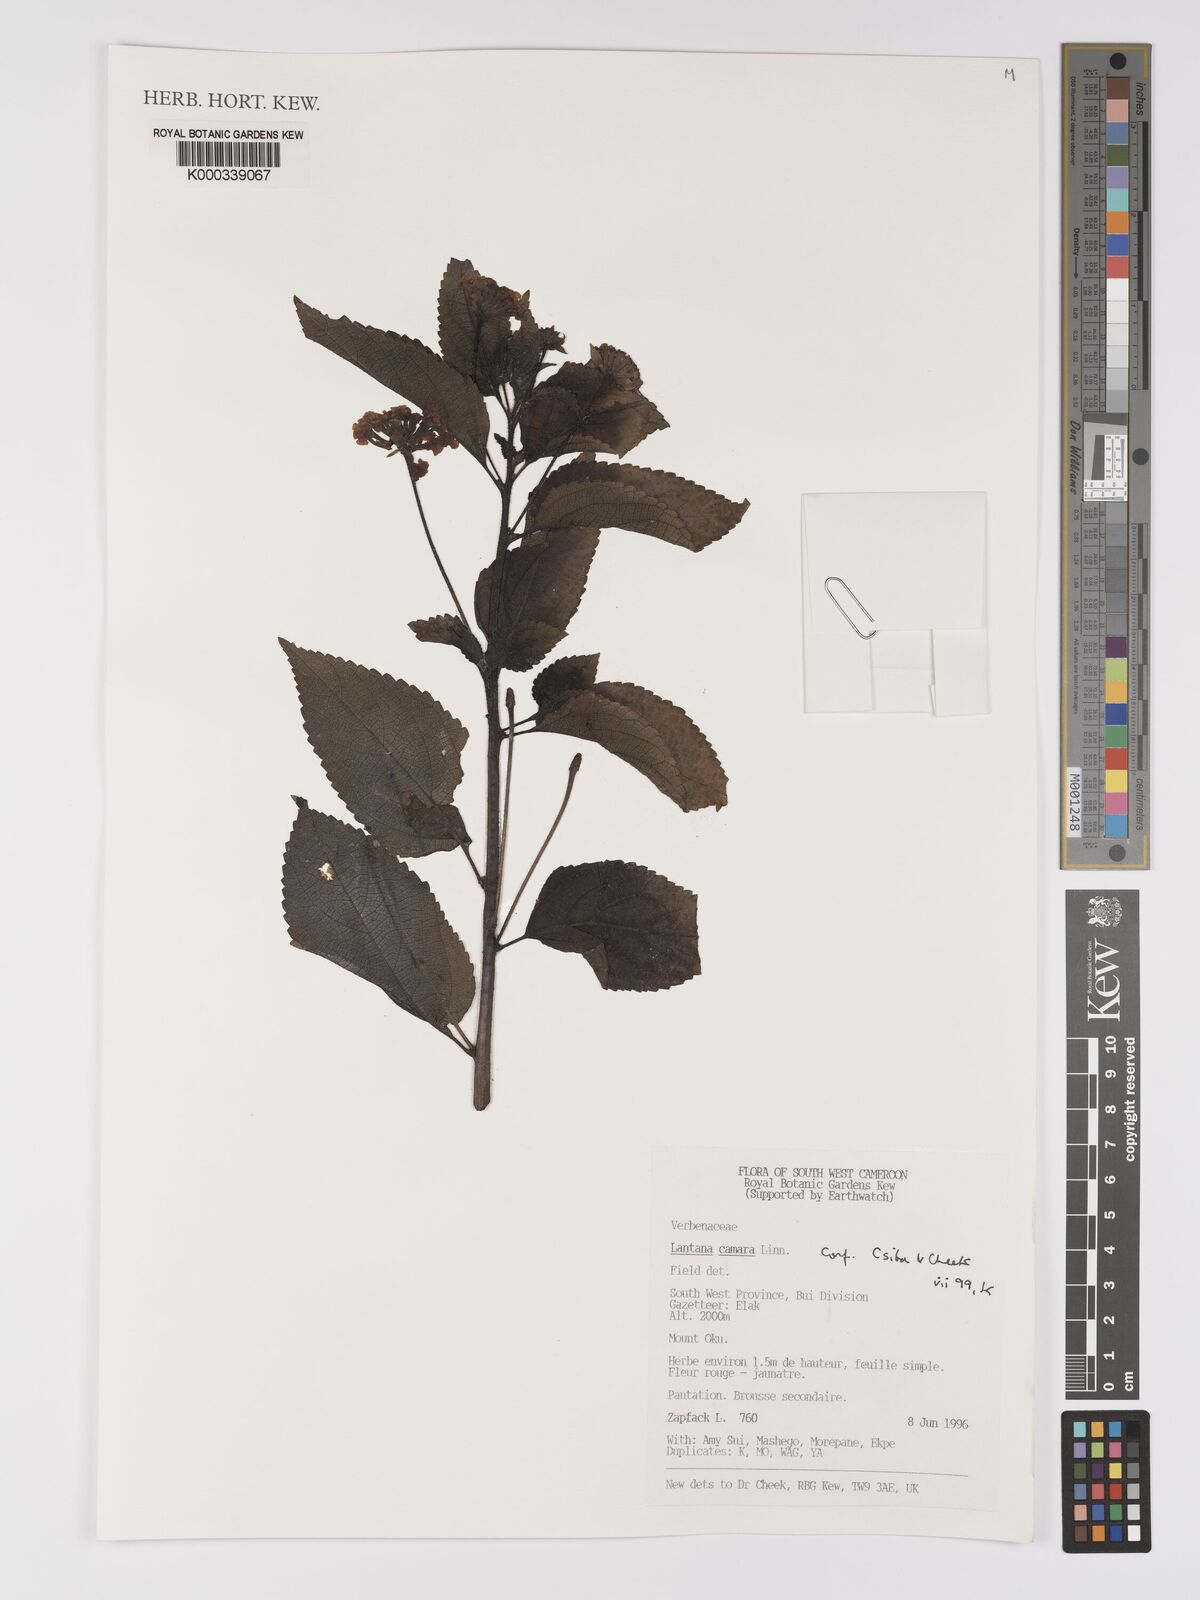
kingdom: Plantae
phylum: Tracheophyta
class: Magnoliopsida
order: Lamiales
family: Verbenaceae
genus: Lantana
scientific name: Lantana camara
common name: Lantana
